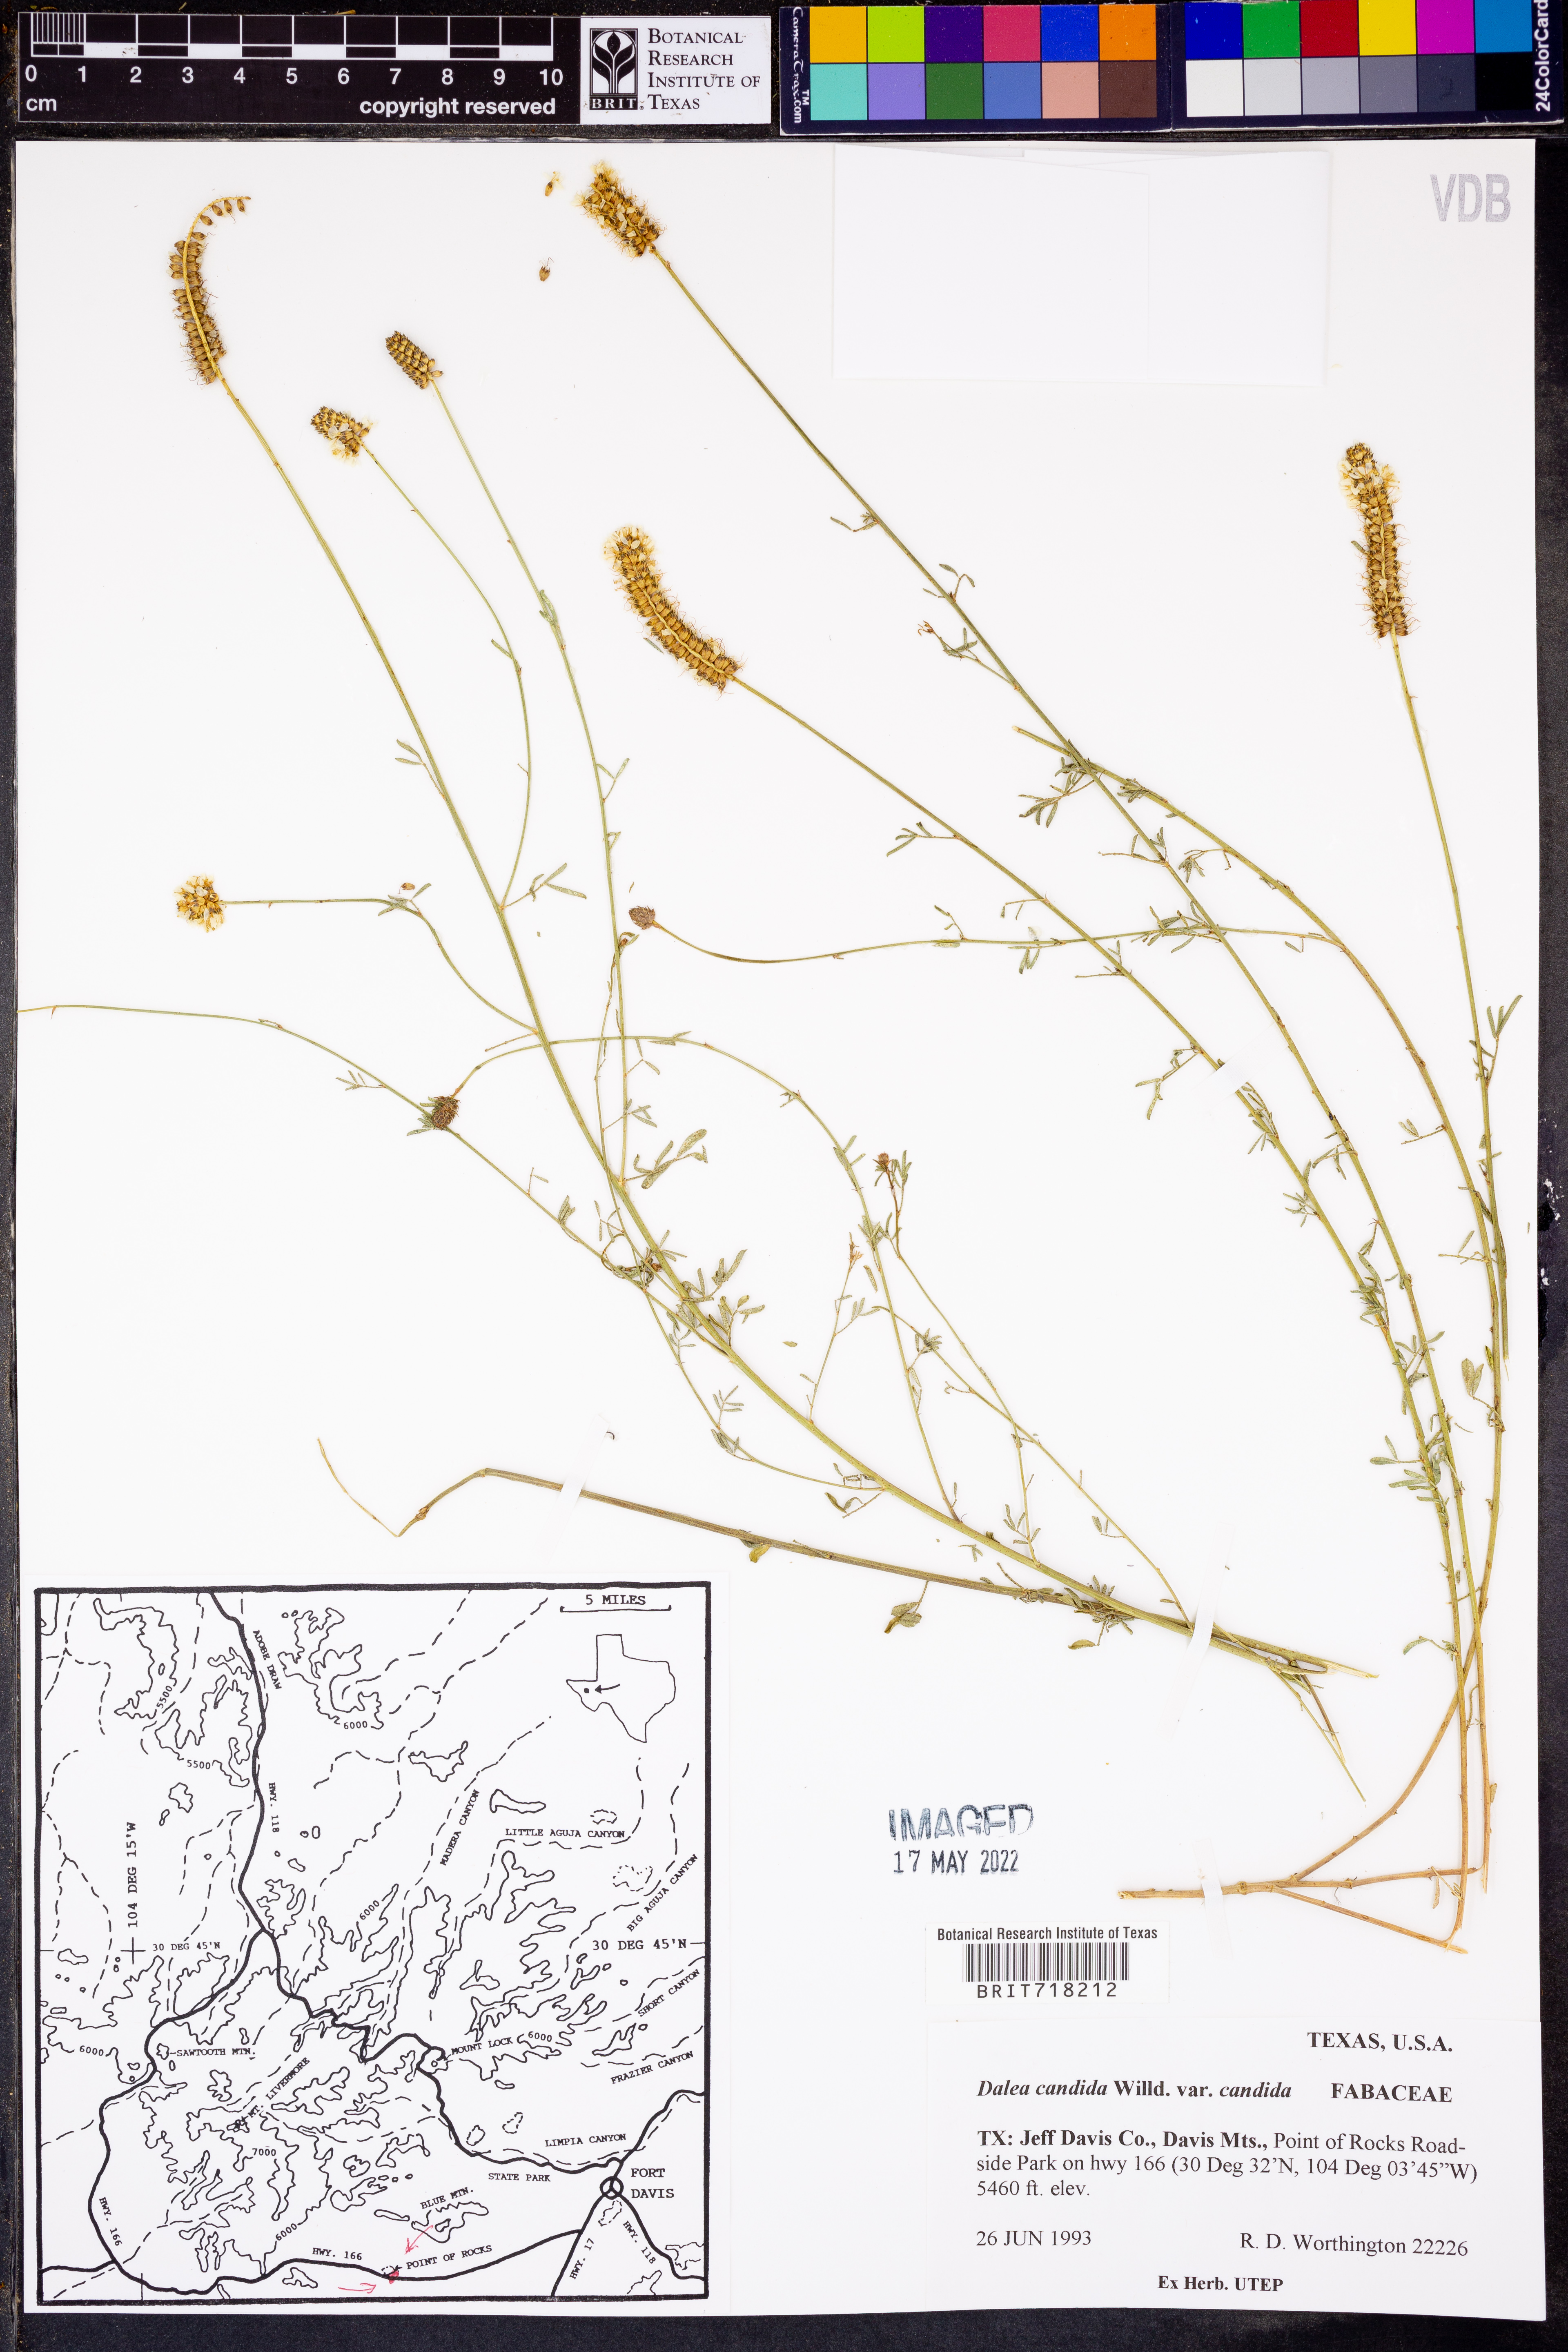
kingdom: Plantae
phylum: Tracheophyta
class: Magnoliopsida
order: Fabales
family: Fabaceae
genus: Dalea
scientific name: Dalea candida
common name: White prairie-clover
